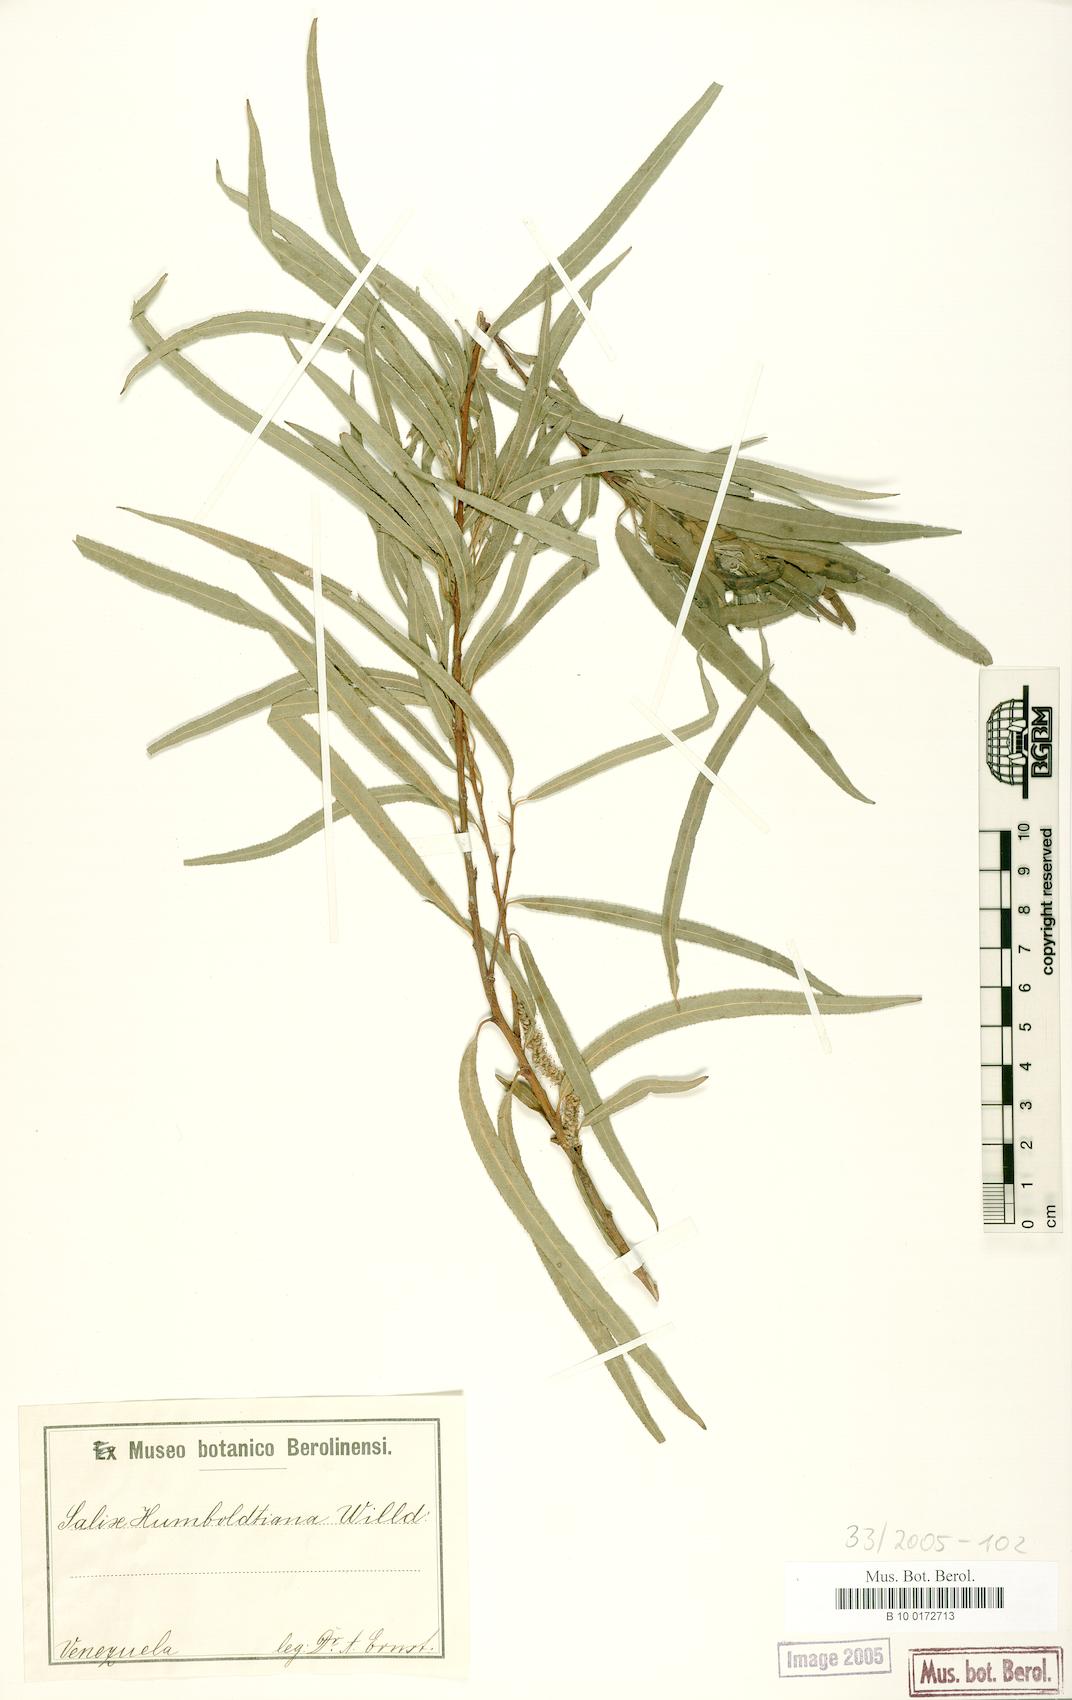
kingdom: Plantae
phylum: Tracheophyta
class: Magnoliopsida
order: Malpighiales
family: Salicaceae
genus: Salix
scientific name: Salix humboldtiana
